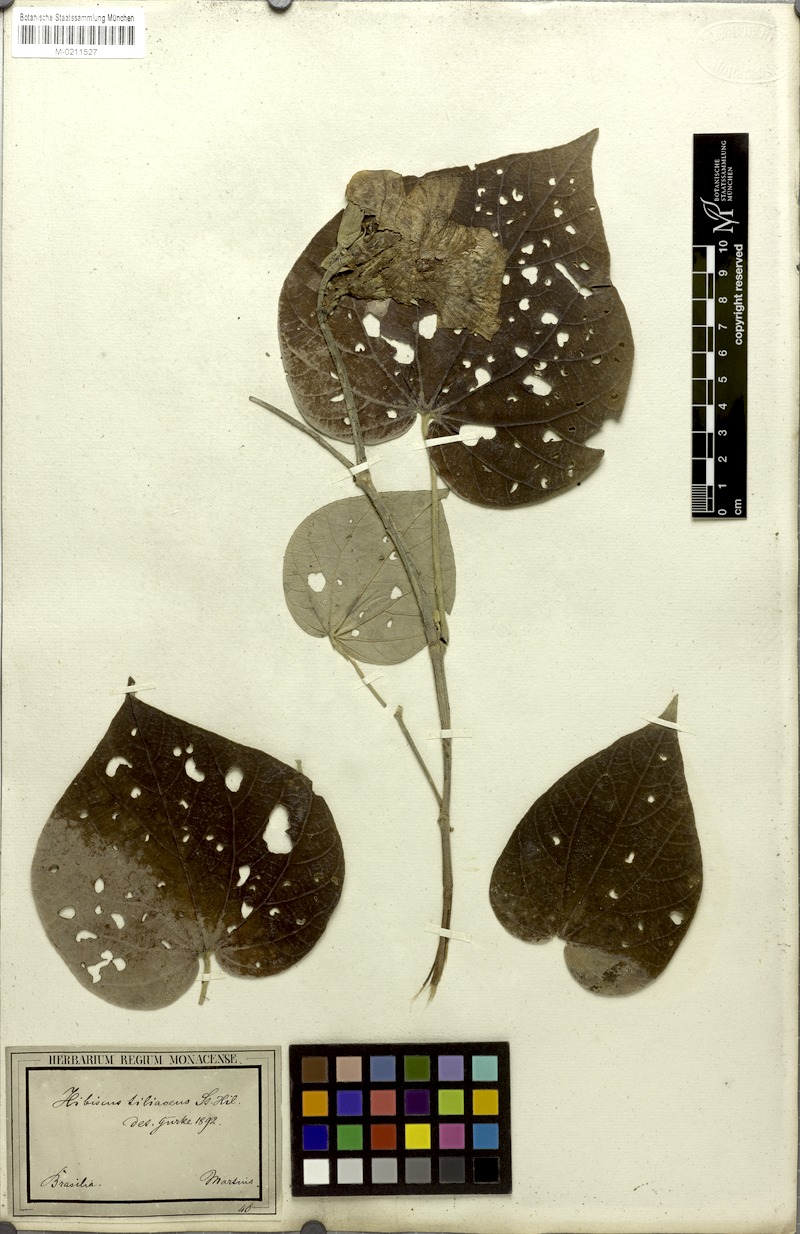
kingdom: Plantae
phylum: Tracheophyta
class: Magnoliopsida
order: Malvales
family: Malvaceae
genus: Talipariti
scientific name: Talipariti tiliaceum
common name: Sea hibiscus
